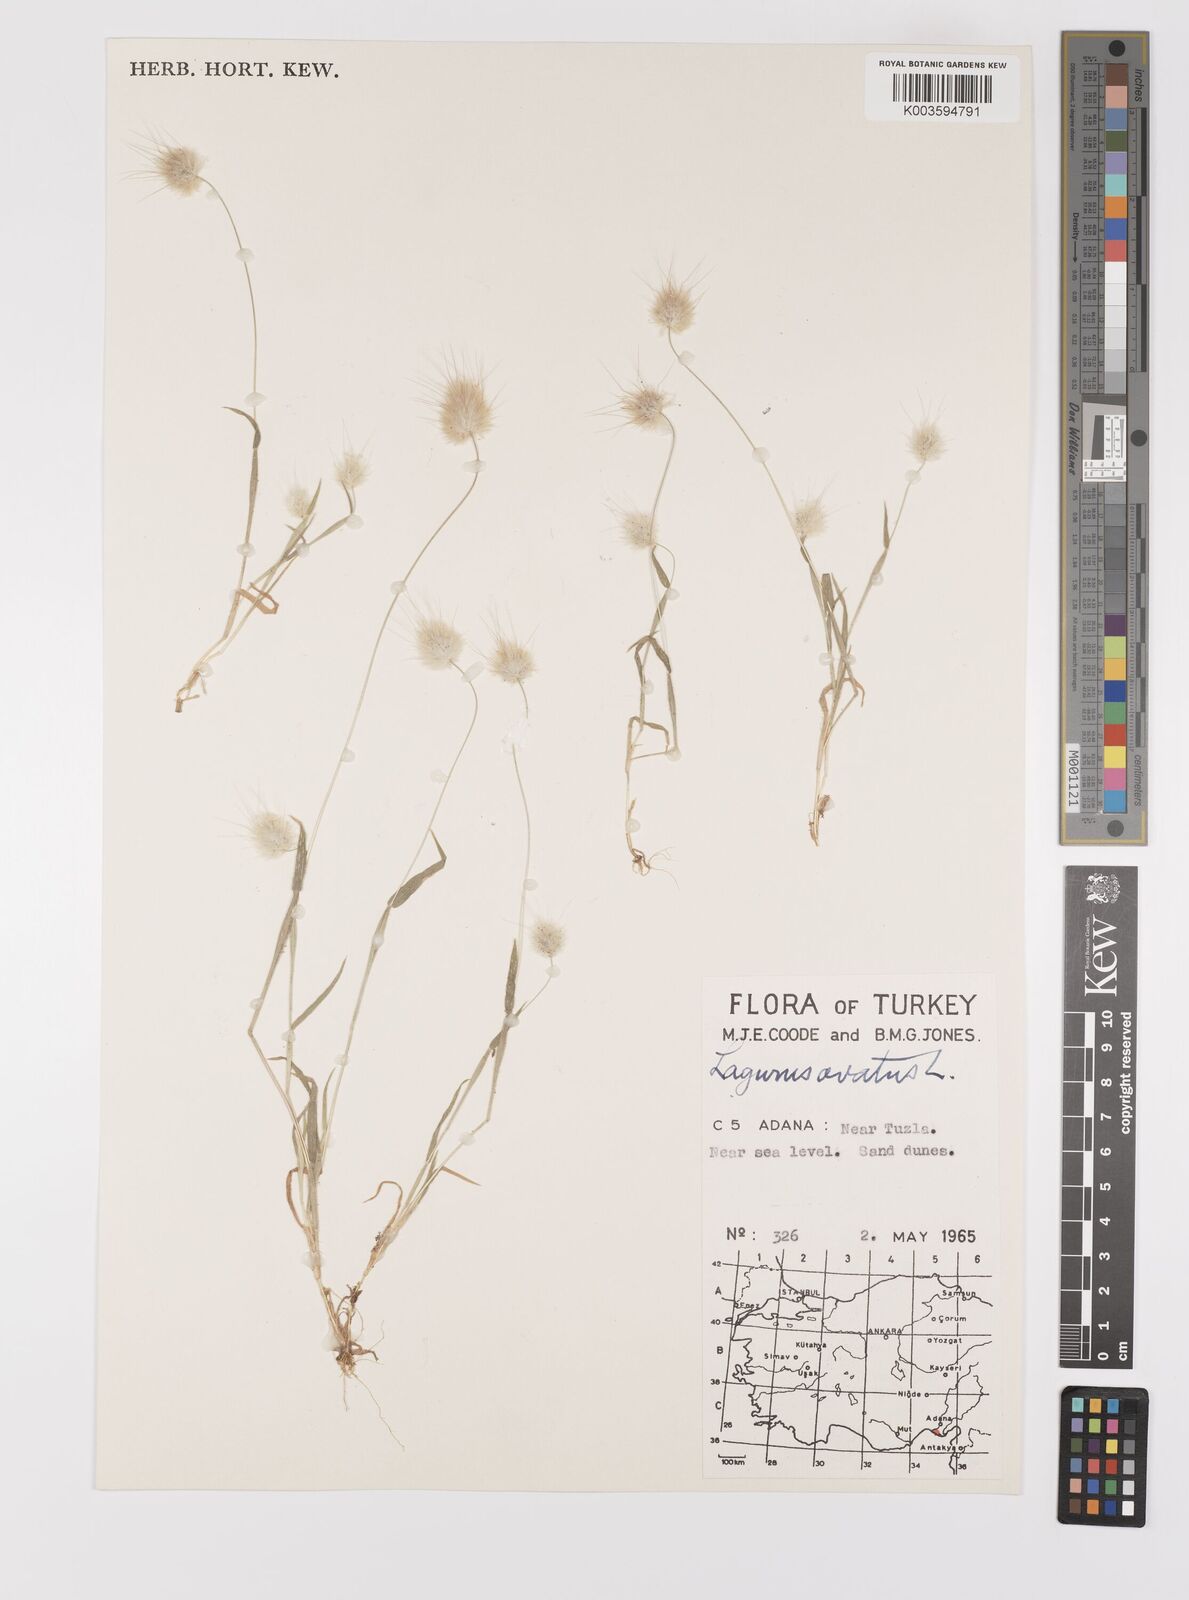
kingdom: Plantae
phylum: Tracheophyta
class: Liliopsida
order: Poales
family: Poaceae
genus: Lagurus
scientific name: Lagurus ovatus
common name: Hare's-tail
